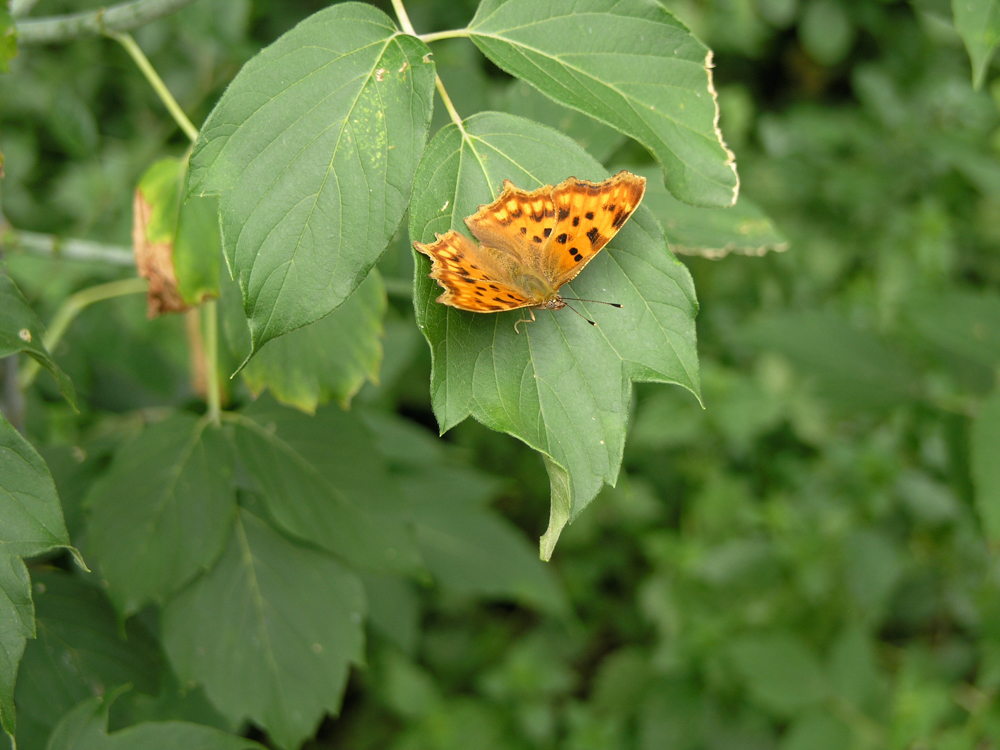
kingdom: Animalia
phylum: Arthropoda
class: Insecta
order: Lepidoptera
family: Nymphalidae
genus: Polygonia
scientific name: Polygonia c-album
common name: Comma
